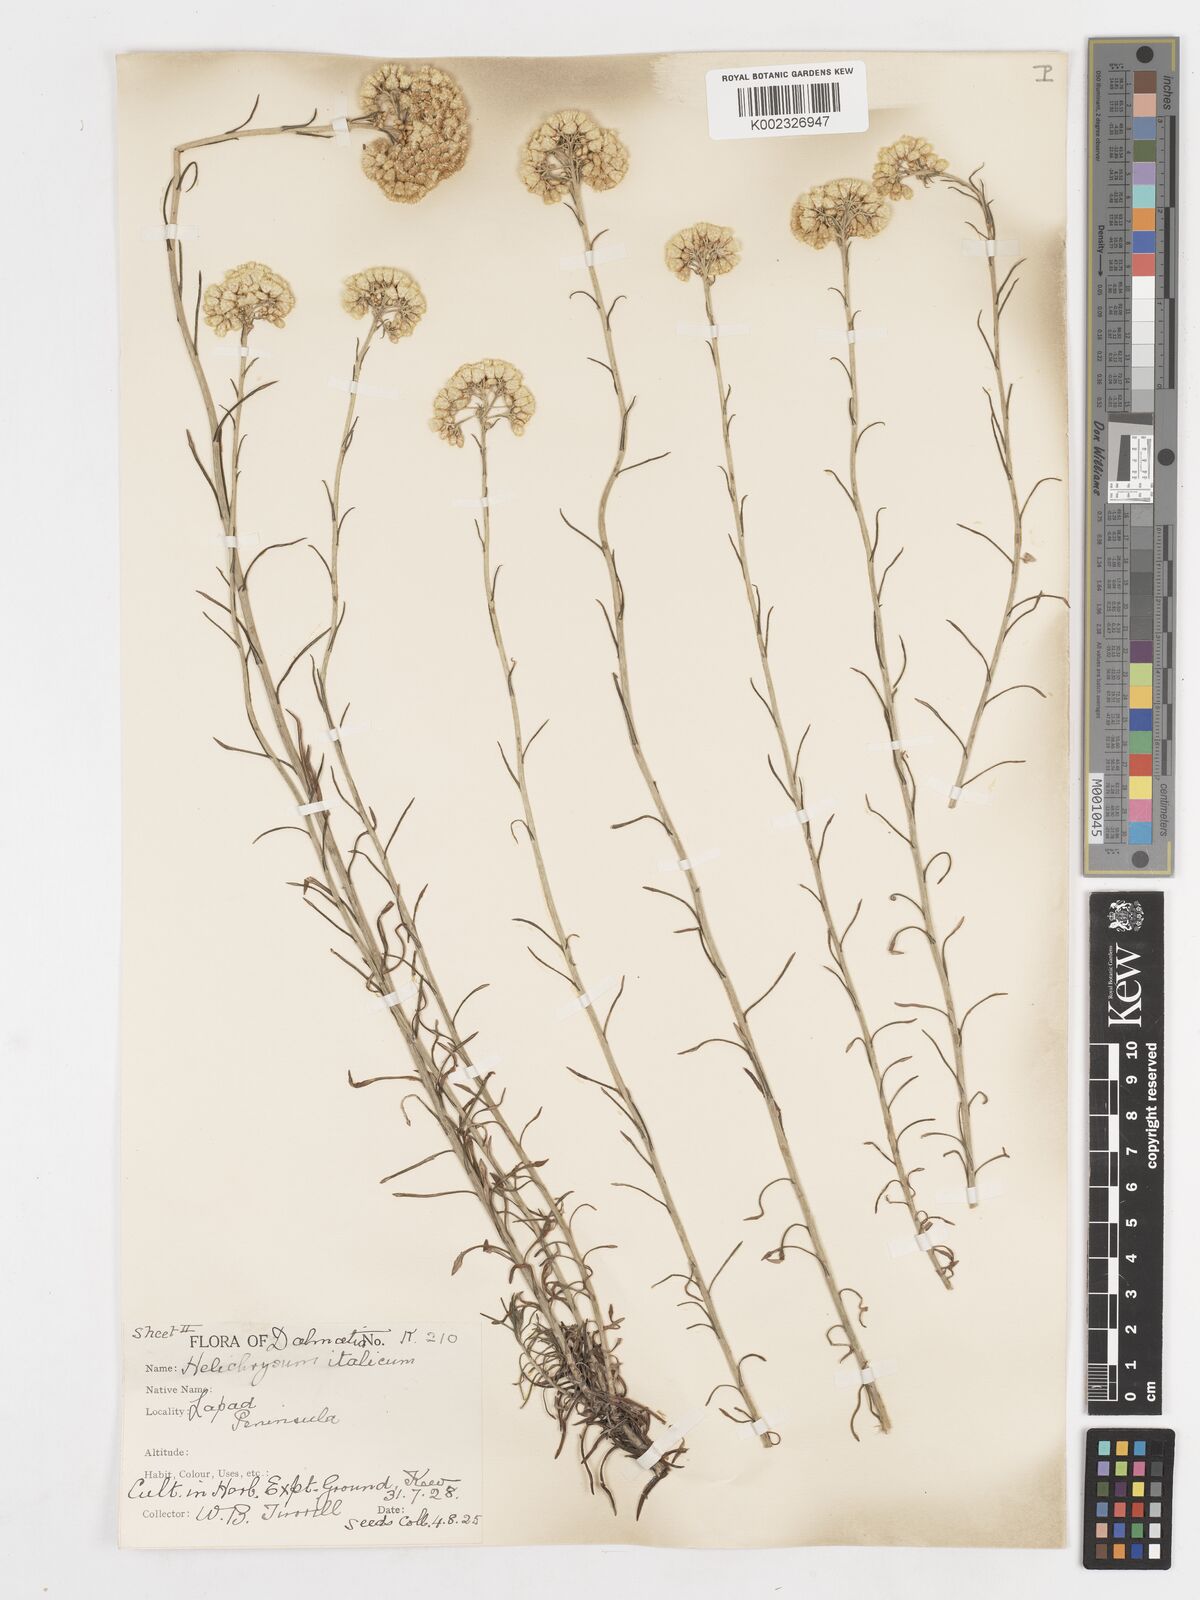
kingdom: Plantae
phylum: Tracheophyta
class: Magnoliopsida
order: Asterales
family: Asteraceae
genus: Helichrysum
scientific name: Helichrysum italicum
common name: Curryplant
